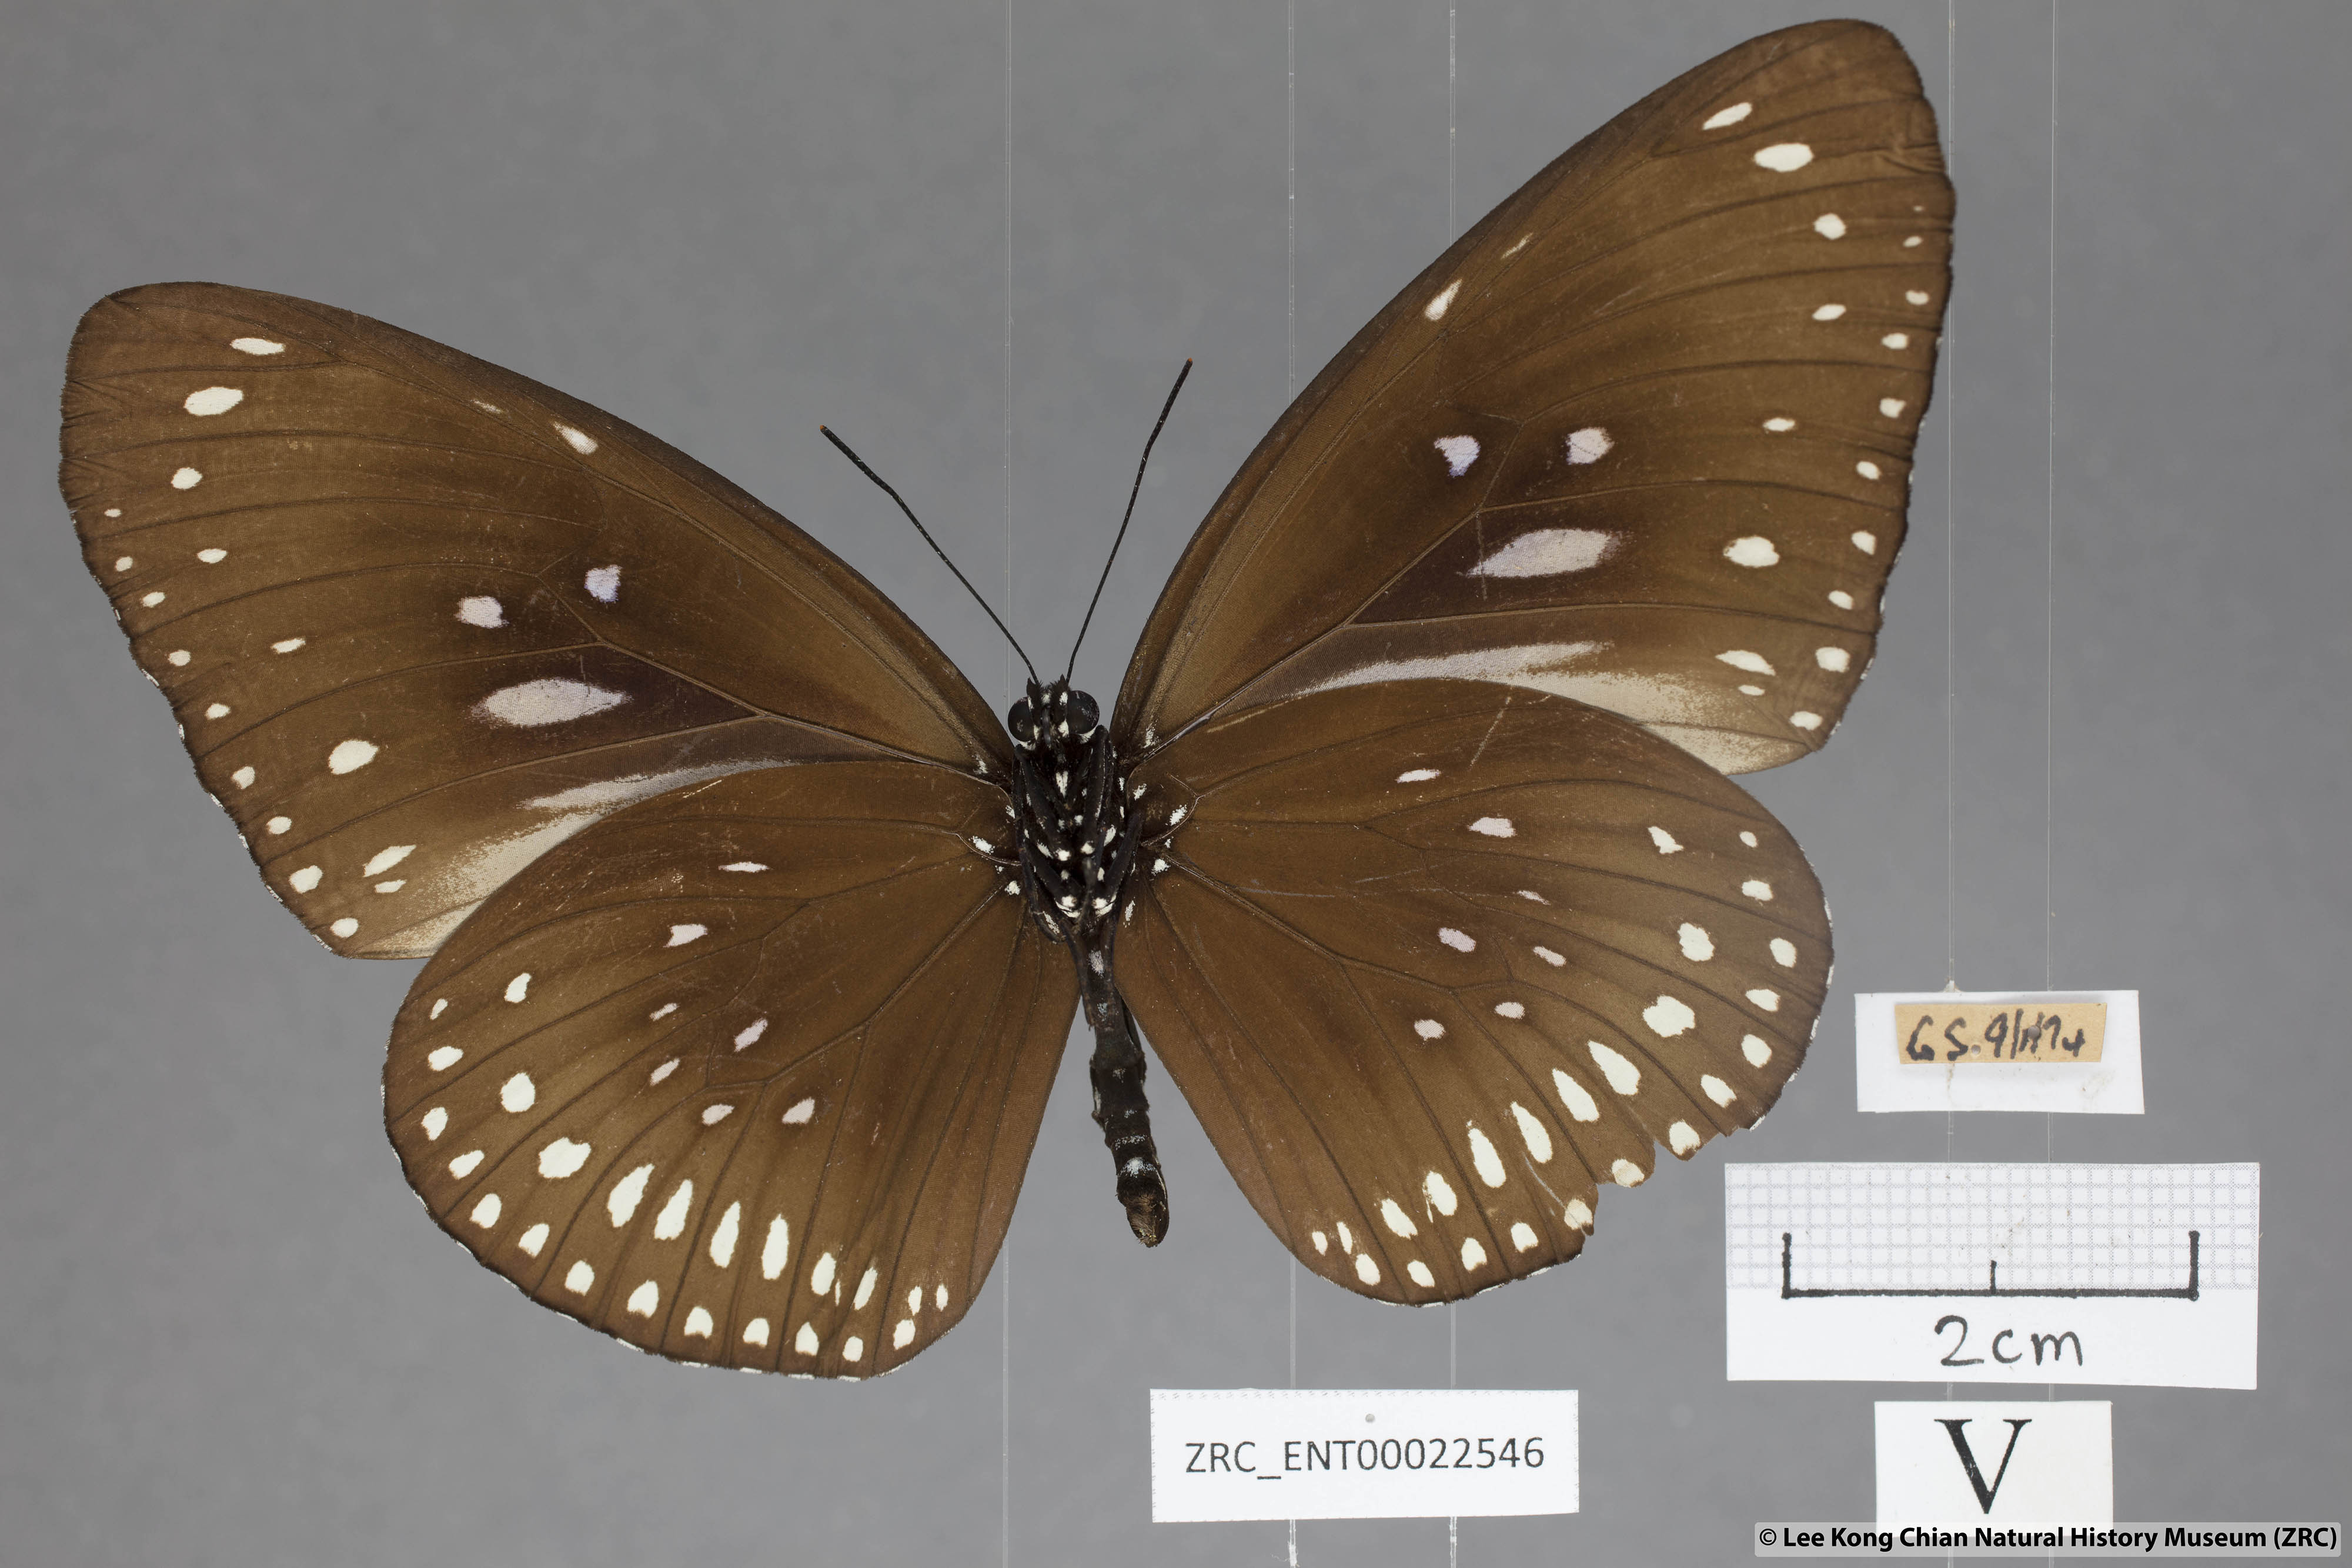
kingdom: Animalia
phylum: Arthropoda
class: Insecta
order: Lepidoptera
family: Nymphalidae
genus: Euploea
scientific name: Euploea algea
